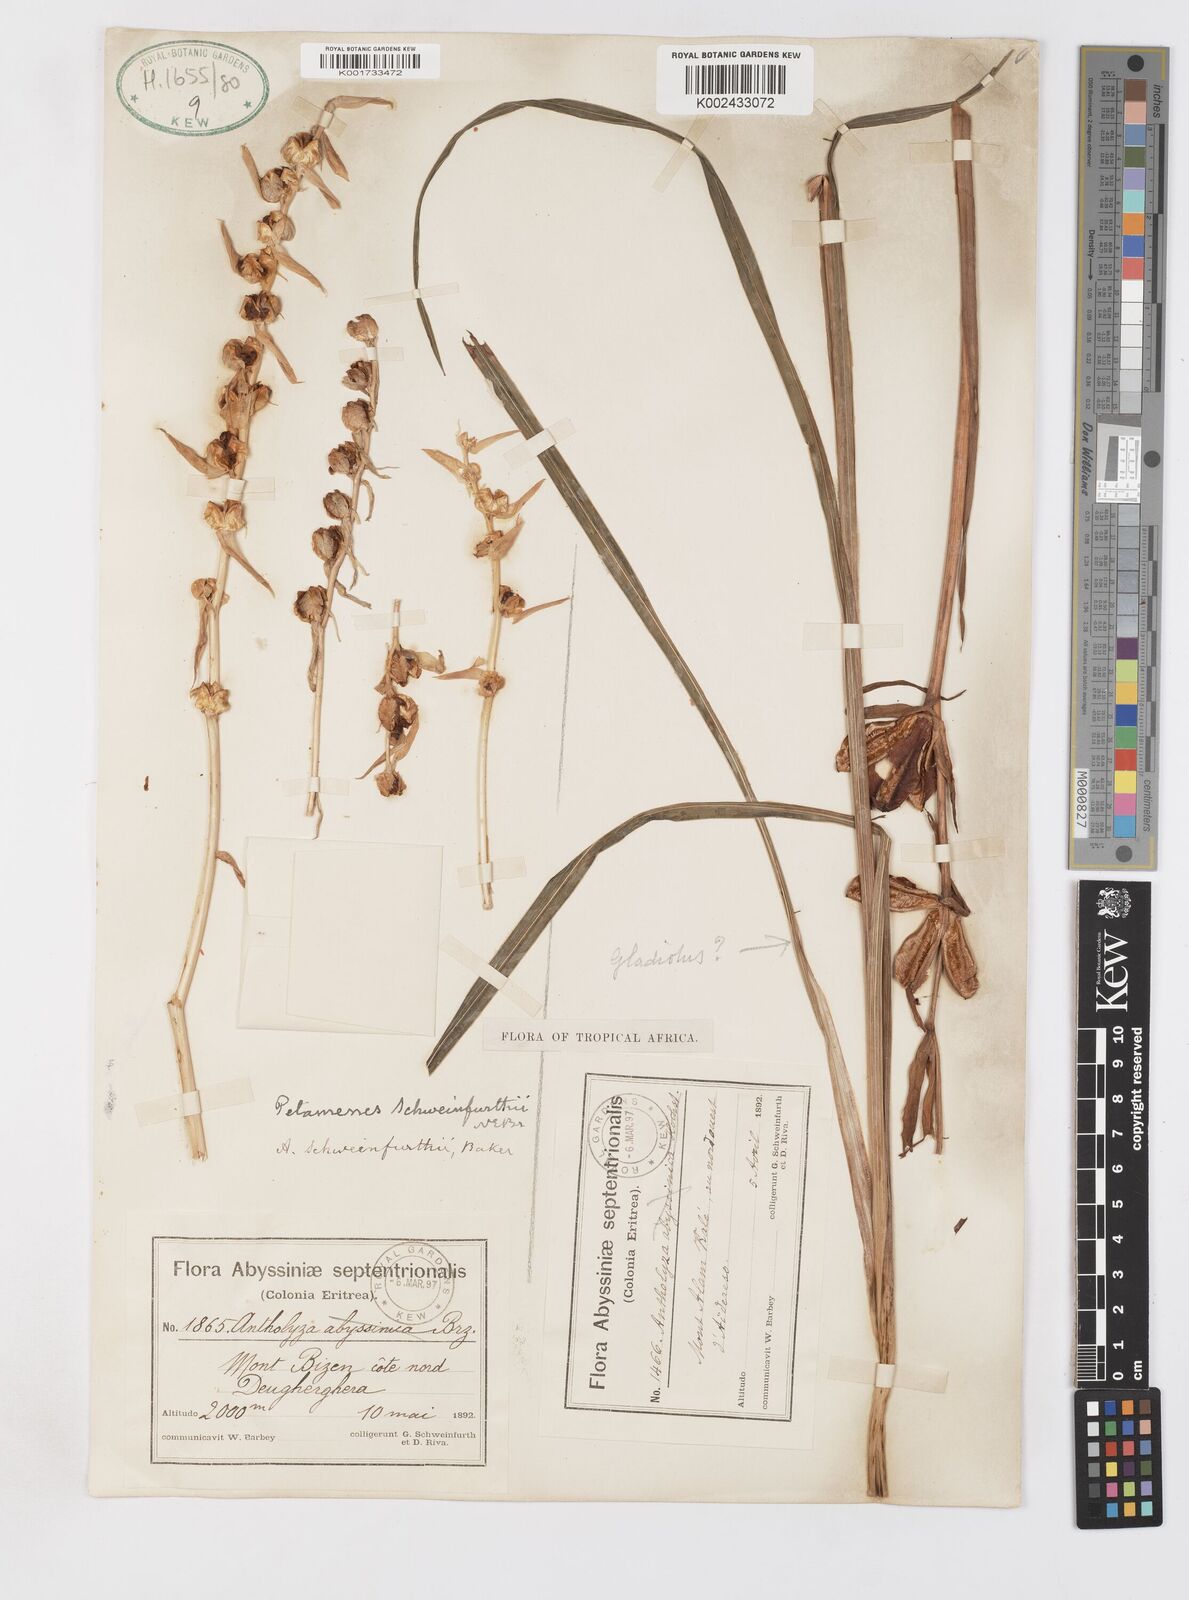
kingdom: Plantae
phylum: Tracheophyta
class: Liliopsida
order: Asparagales
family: Iridaceae
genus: Gladiolus
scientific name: Gladiolus schweinfurthii
